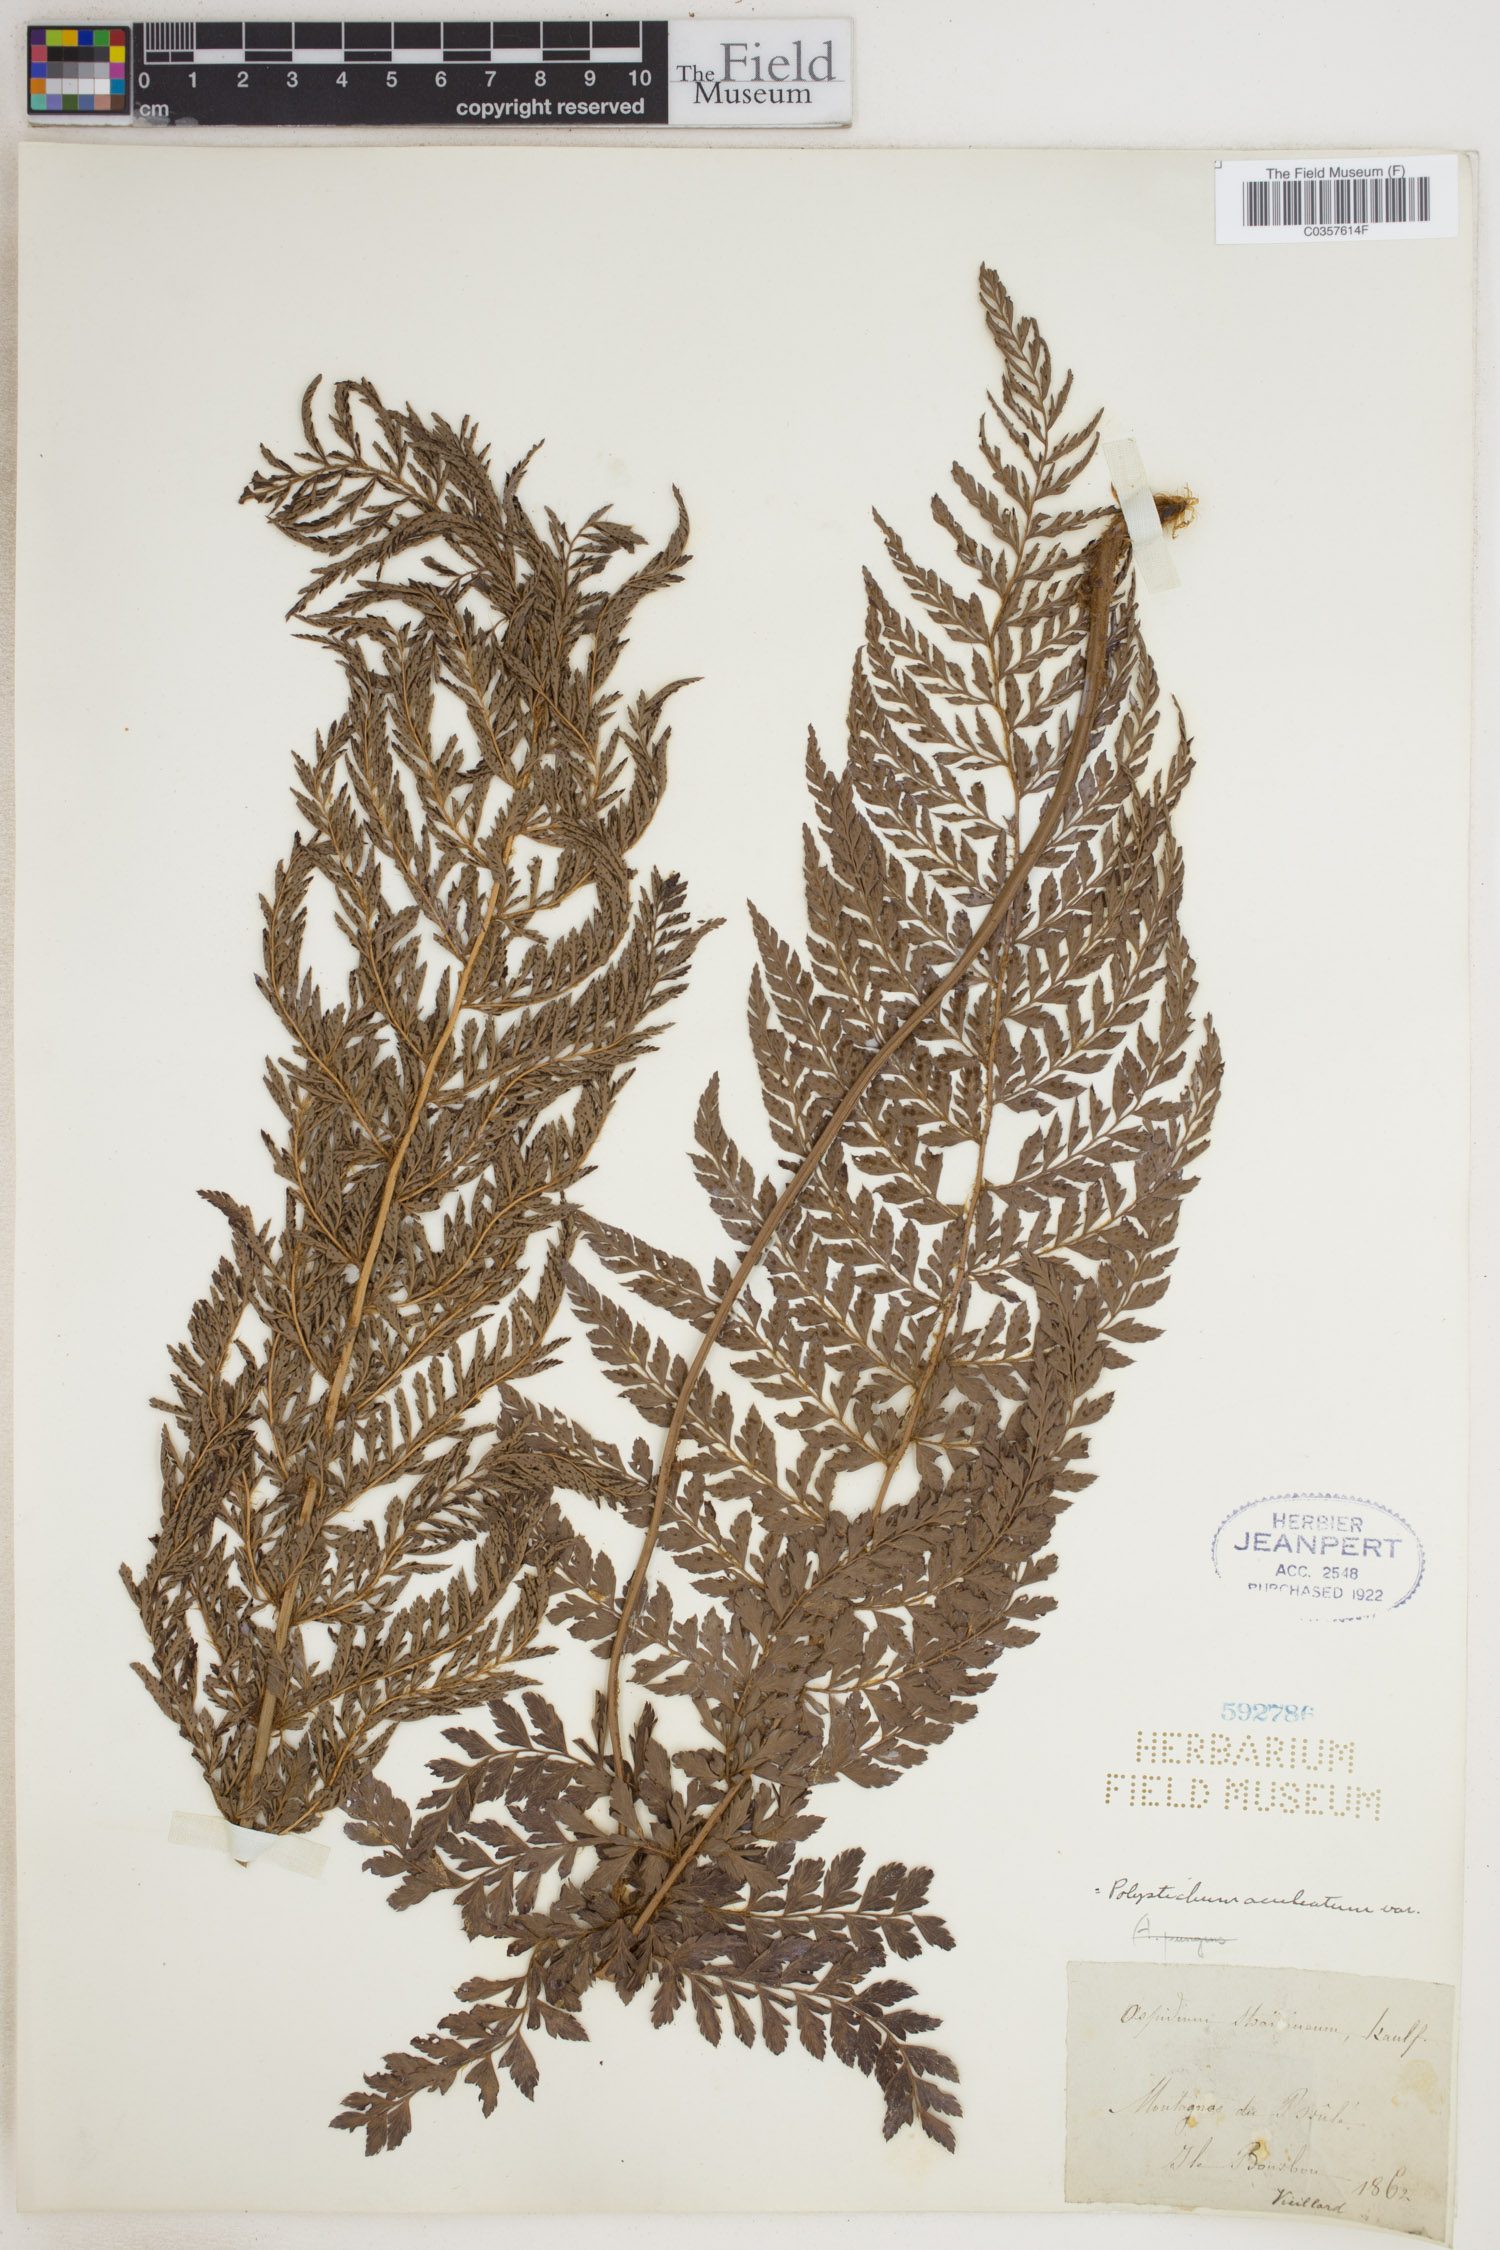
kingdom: Plantae
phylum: Tracheophyta
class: Polypodiopsida
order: Polypodiales
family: Dryopteridaceae
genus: Polystichum
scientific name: Polystichum aculeatum
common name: Hard shield-fern
